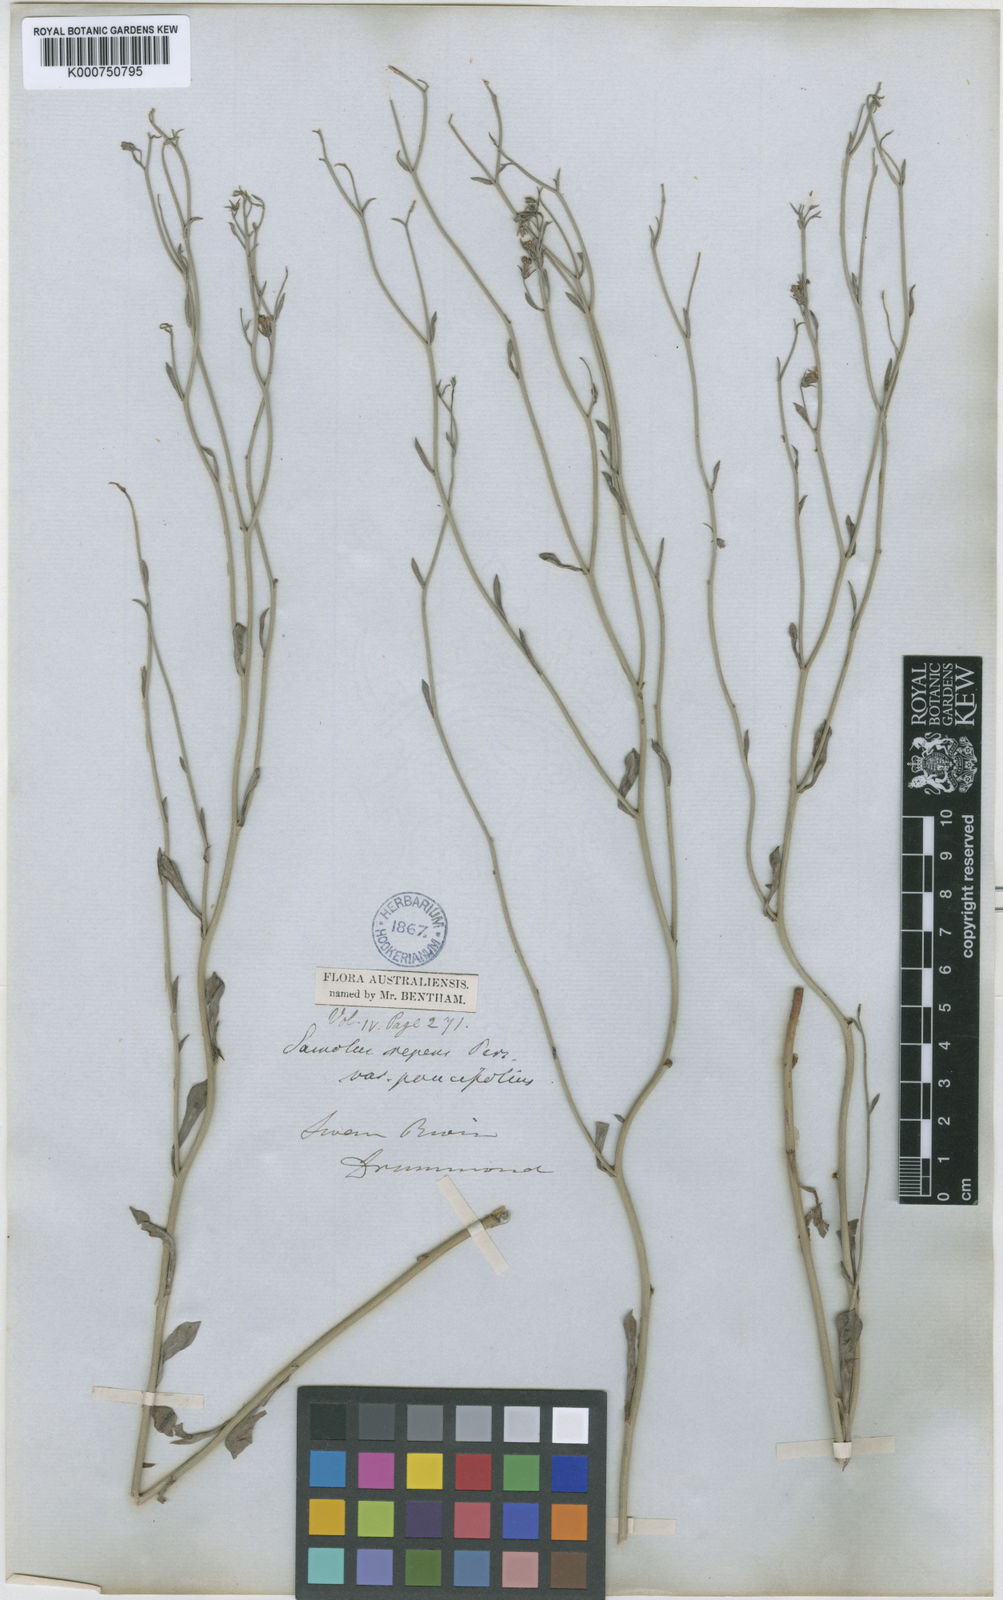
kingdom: Plantae
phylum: Tracheophyta
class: Magnoliopsida
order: Ericales
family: Primulaceae
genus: Samolus
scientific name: Samolus repens
